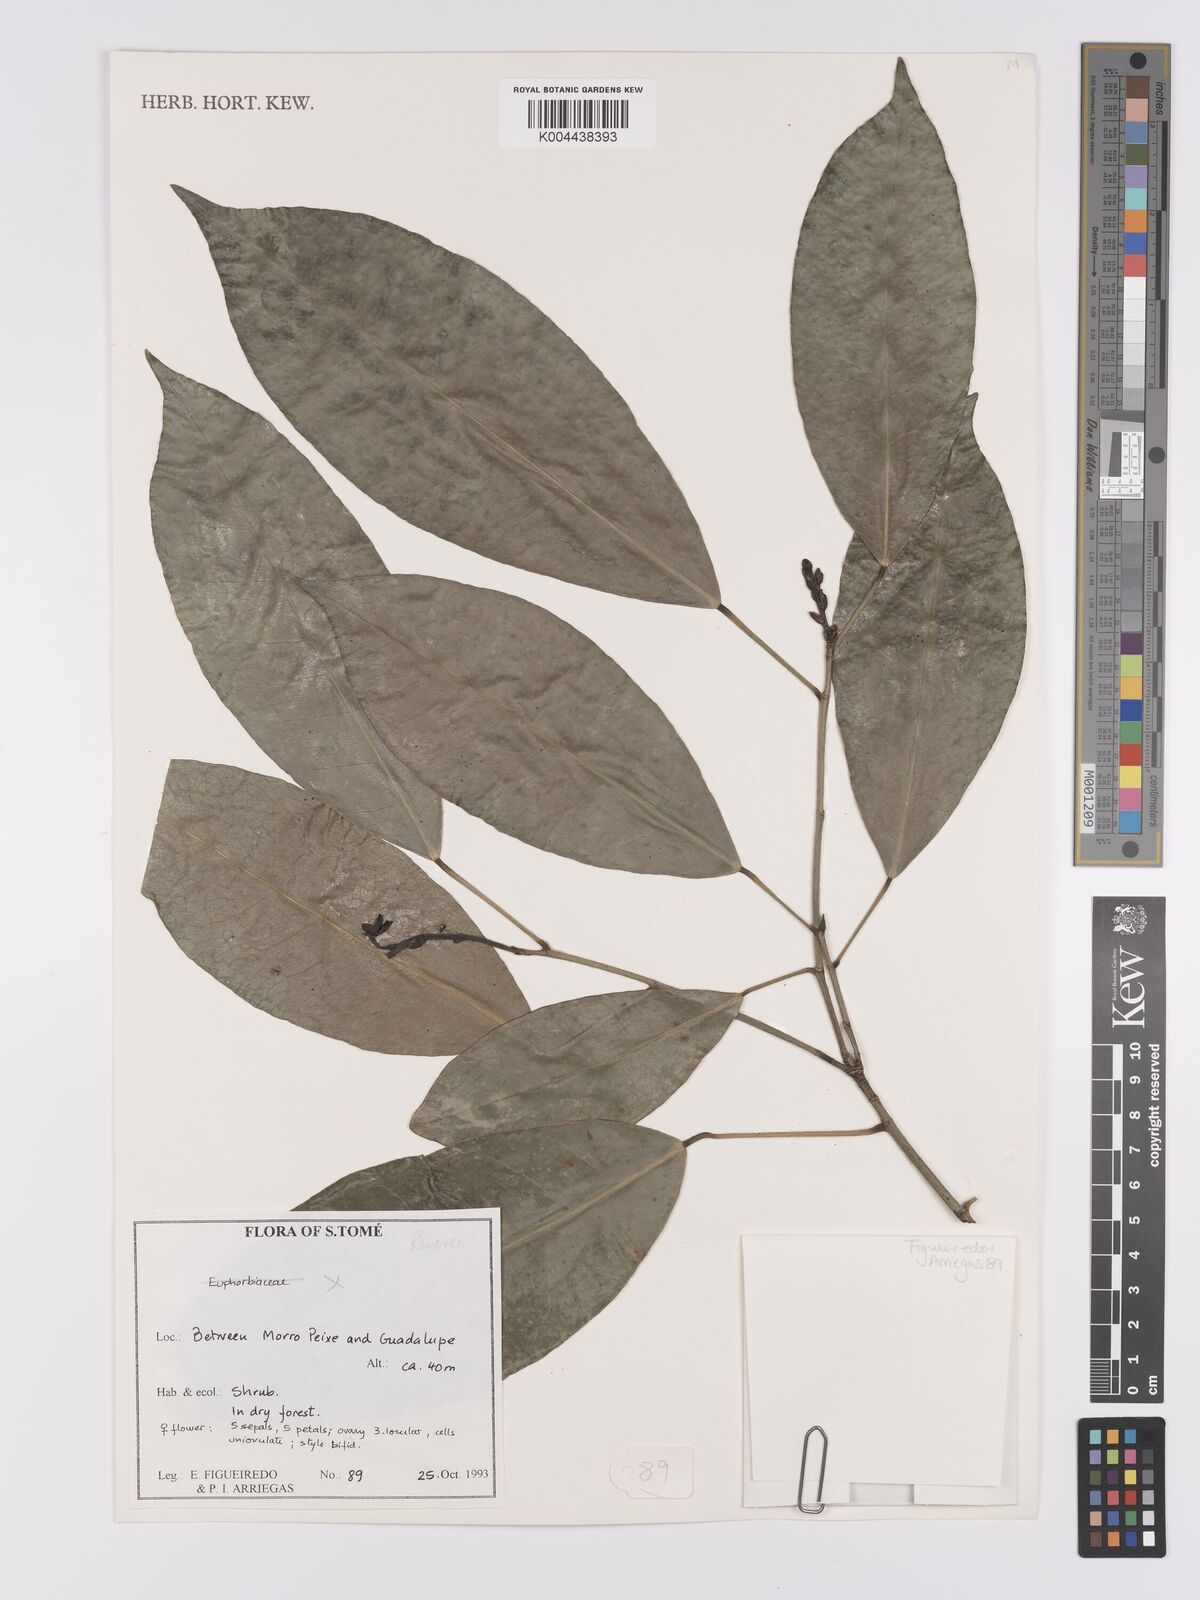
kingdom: Plantae
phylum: Tracheophyta
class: Magnoliopsida
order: Malpighiales
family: Violaceae
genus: Rinorea
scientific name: Rinorea
